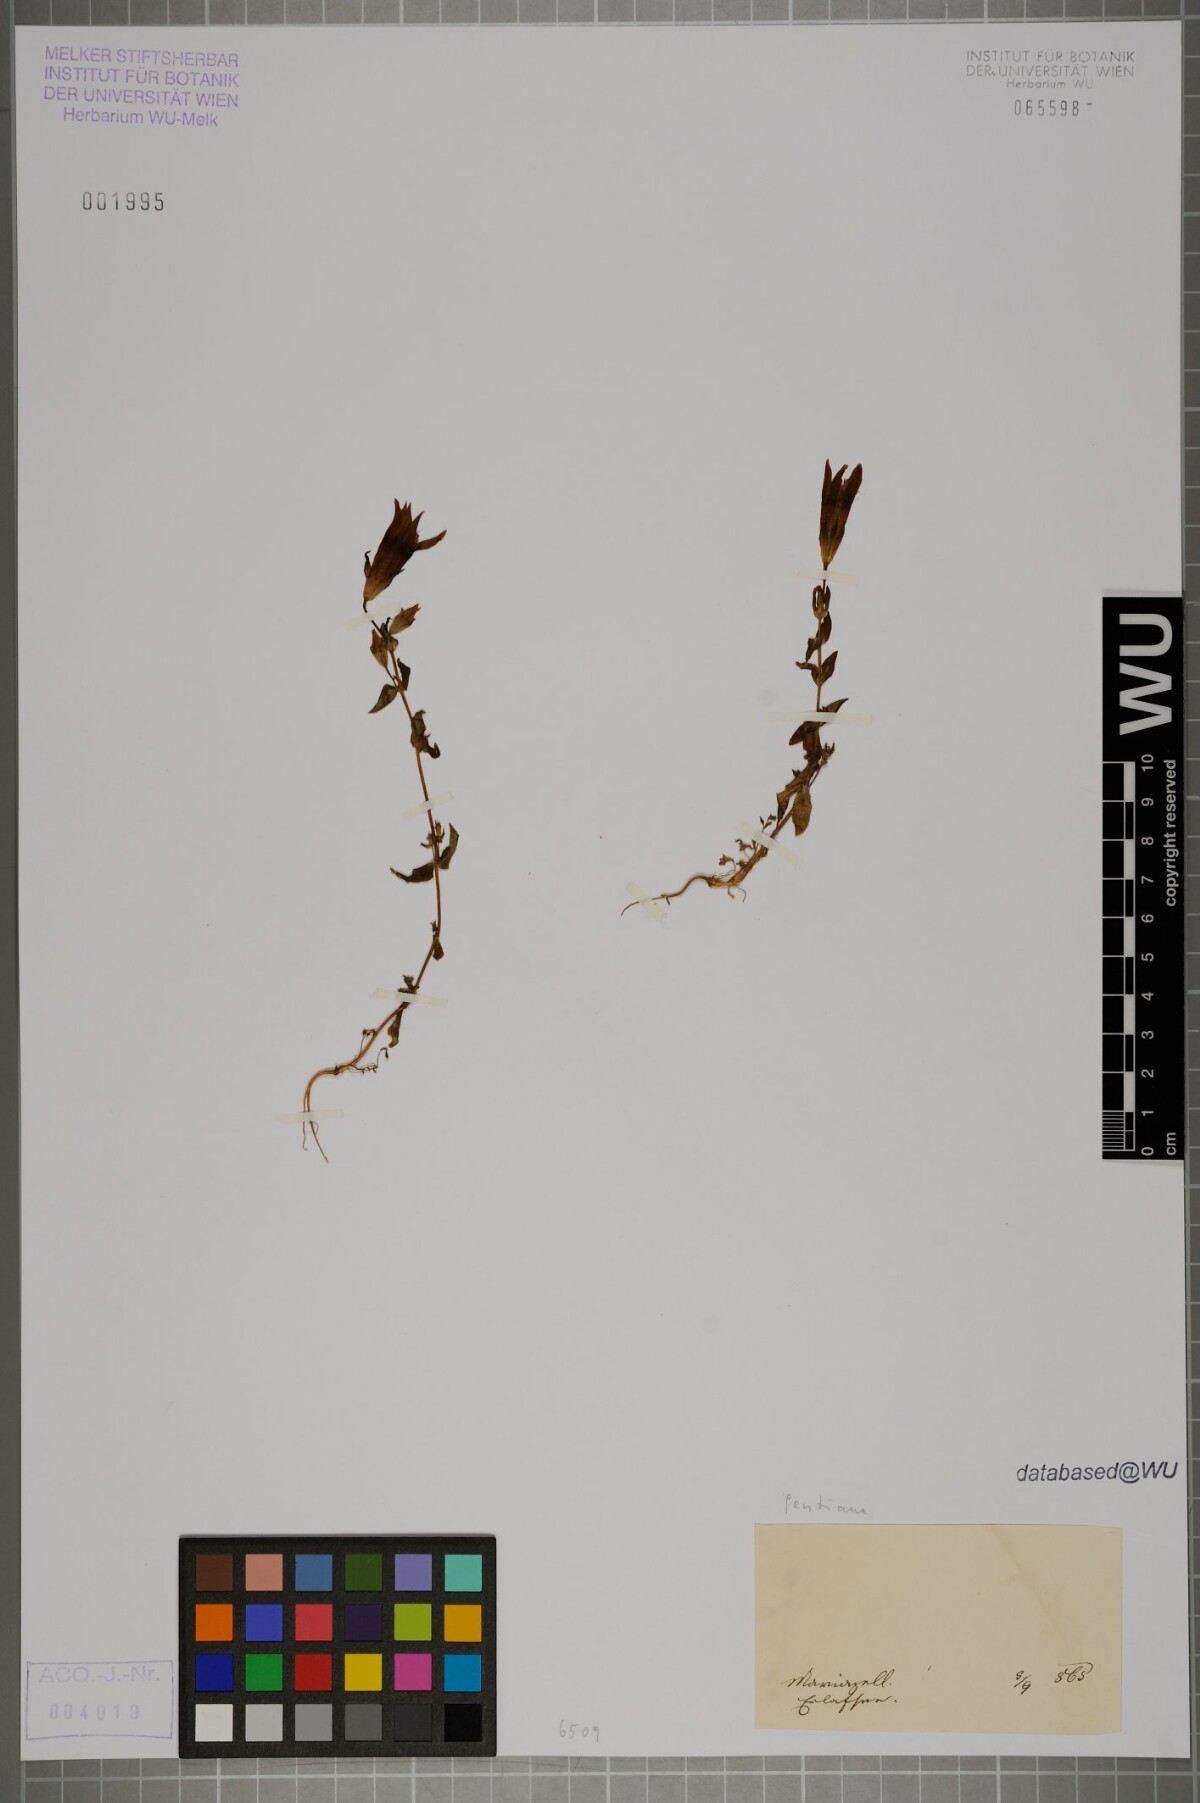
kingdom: Plantae
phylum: Tracheophyta
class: Magnoliopsida
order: Gentianales
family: Gentianaceae
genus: Gentianella
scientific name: Gentianella rhaetica
